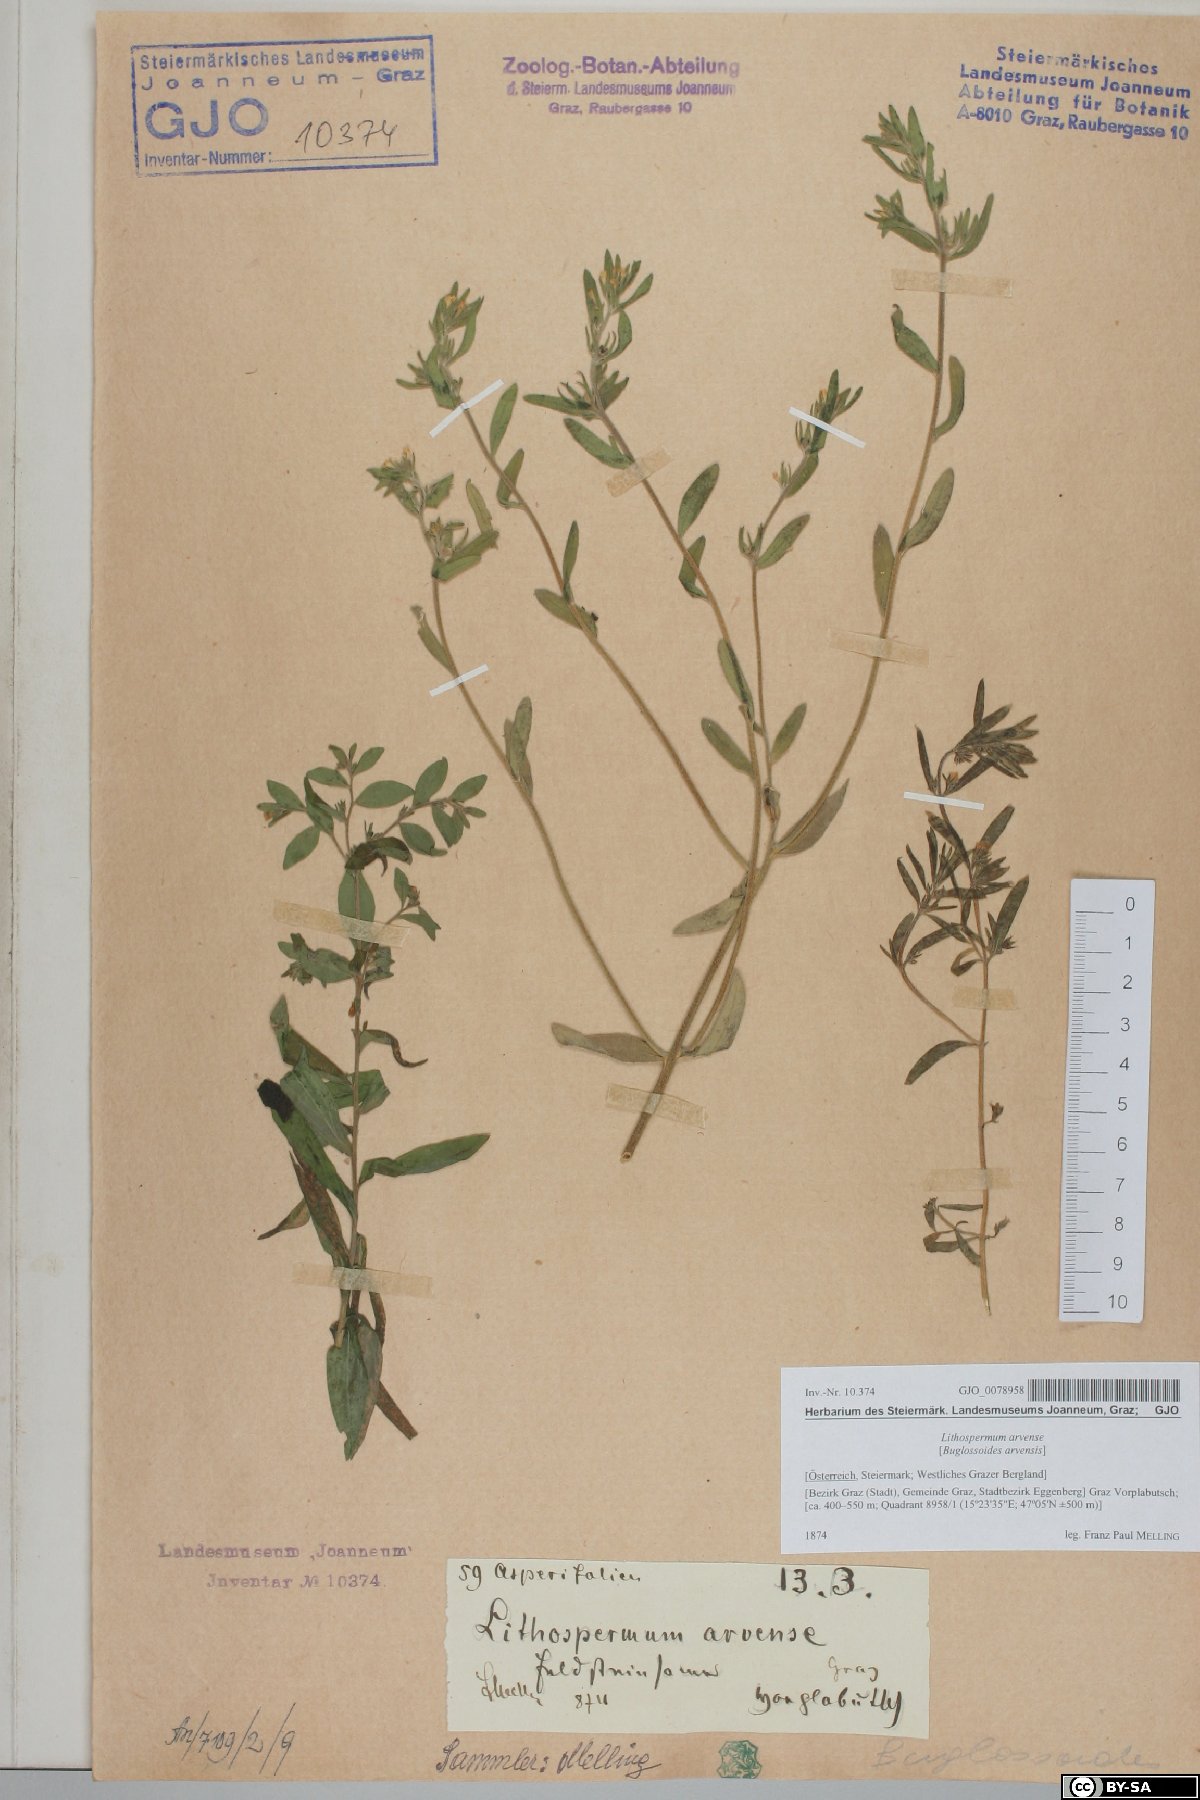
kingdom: Plantae
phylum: Tracheophyta
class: Magnoliopsida
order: Boraginales
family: Boraginaceae
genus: Buglossoides
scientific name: Buglossoides arvensis
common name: Corn gromwell
